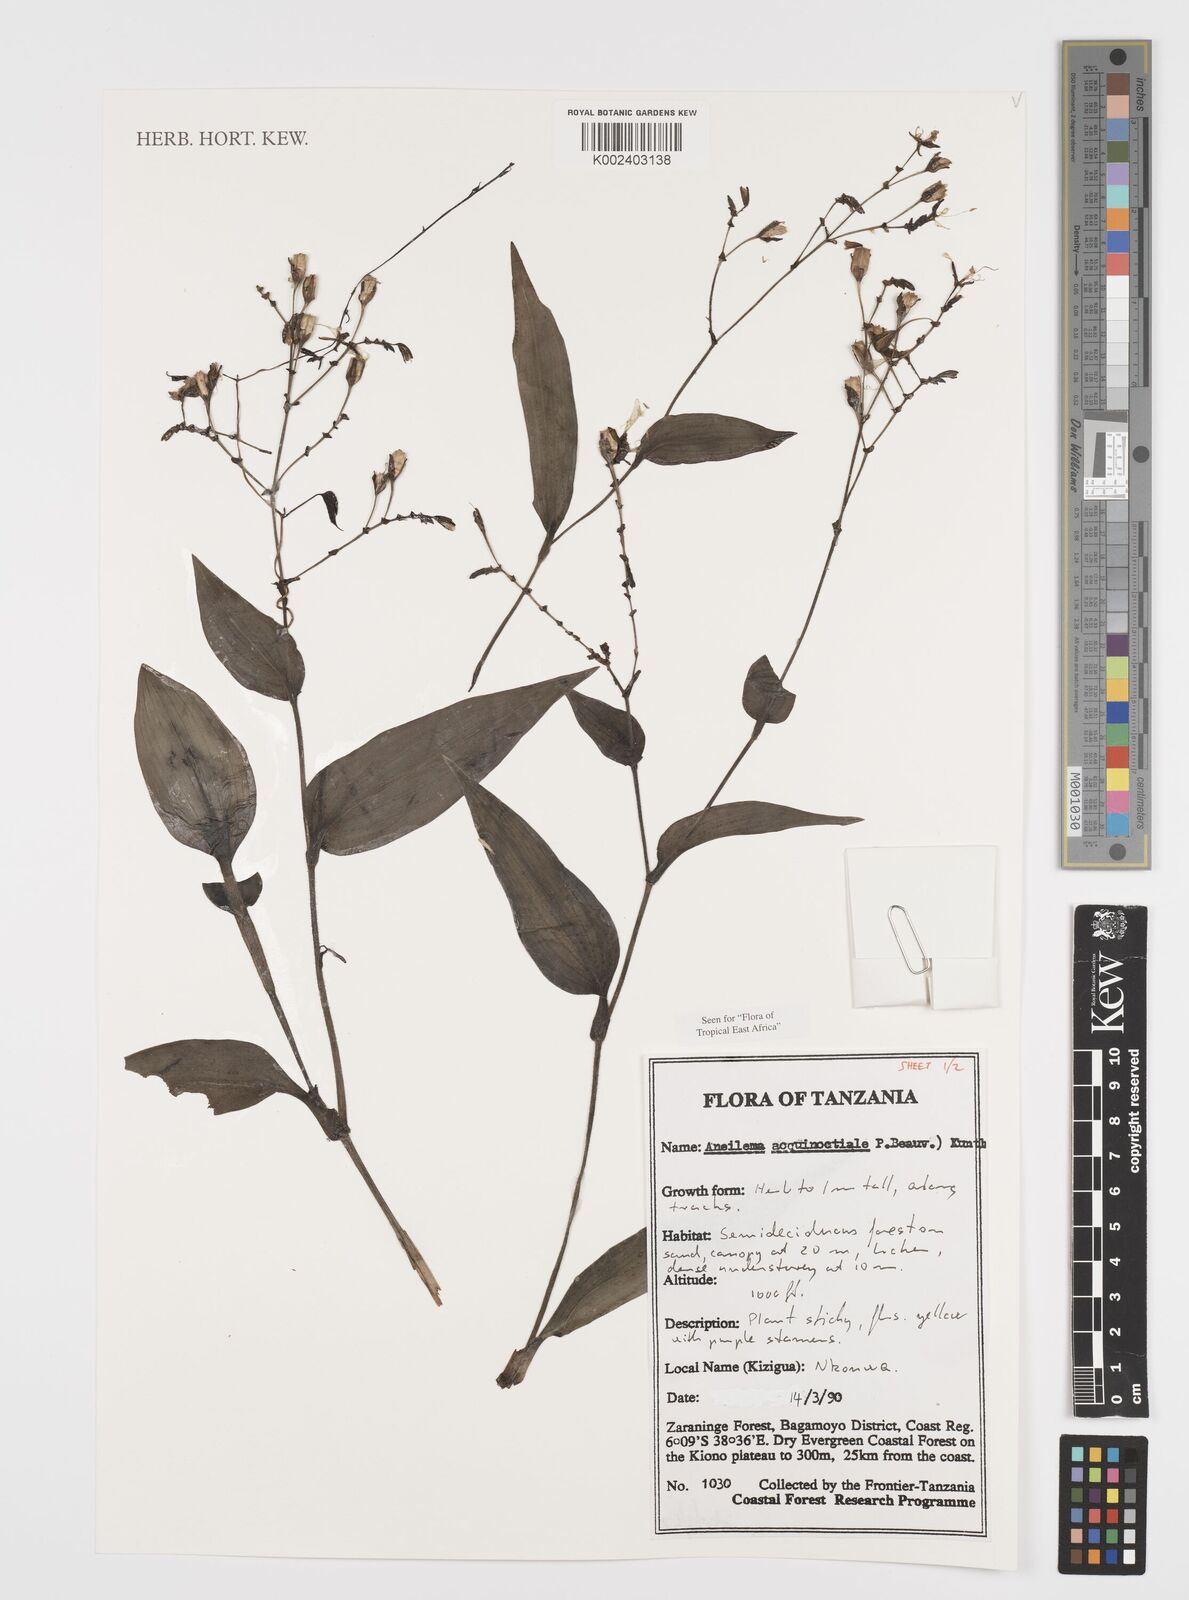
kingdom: Plantae
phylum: Tracheophyta
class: Liliopsida
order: Commelinales
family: Commelinaceae
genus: Aneilema
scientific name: Aneilema aequinoctiale
